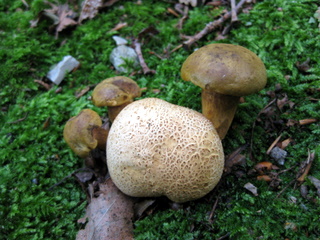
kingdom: Fungi
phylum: Basidiomycota
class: Agaricomycetes
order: Boletales
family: Boletaceae
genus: Pseudoboletus
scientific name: Pseudoboletus parasiticus
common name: snyltende rørhat
